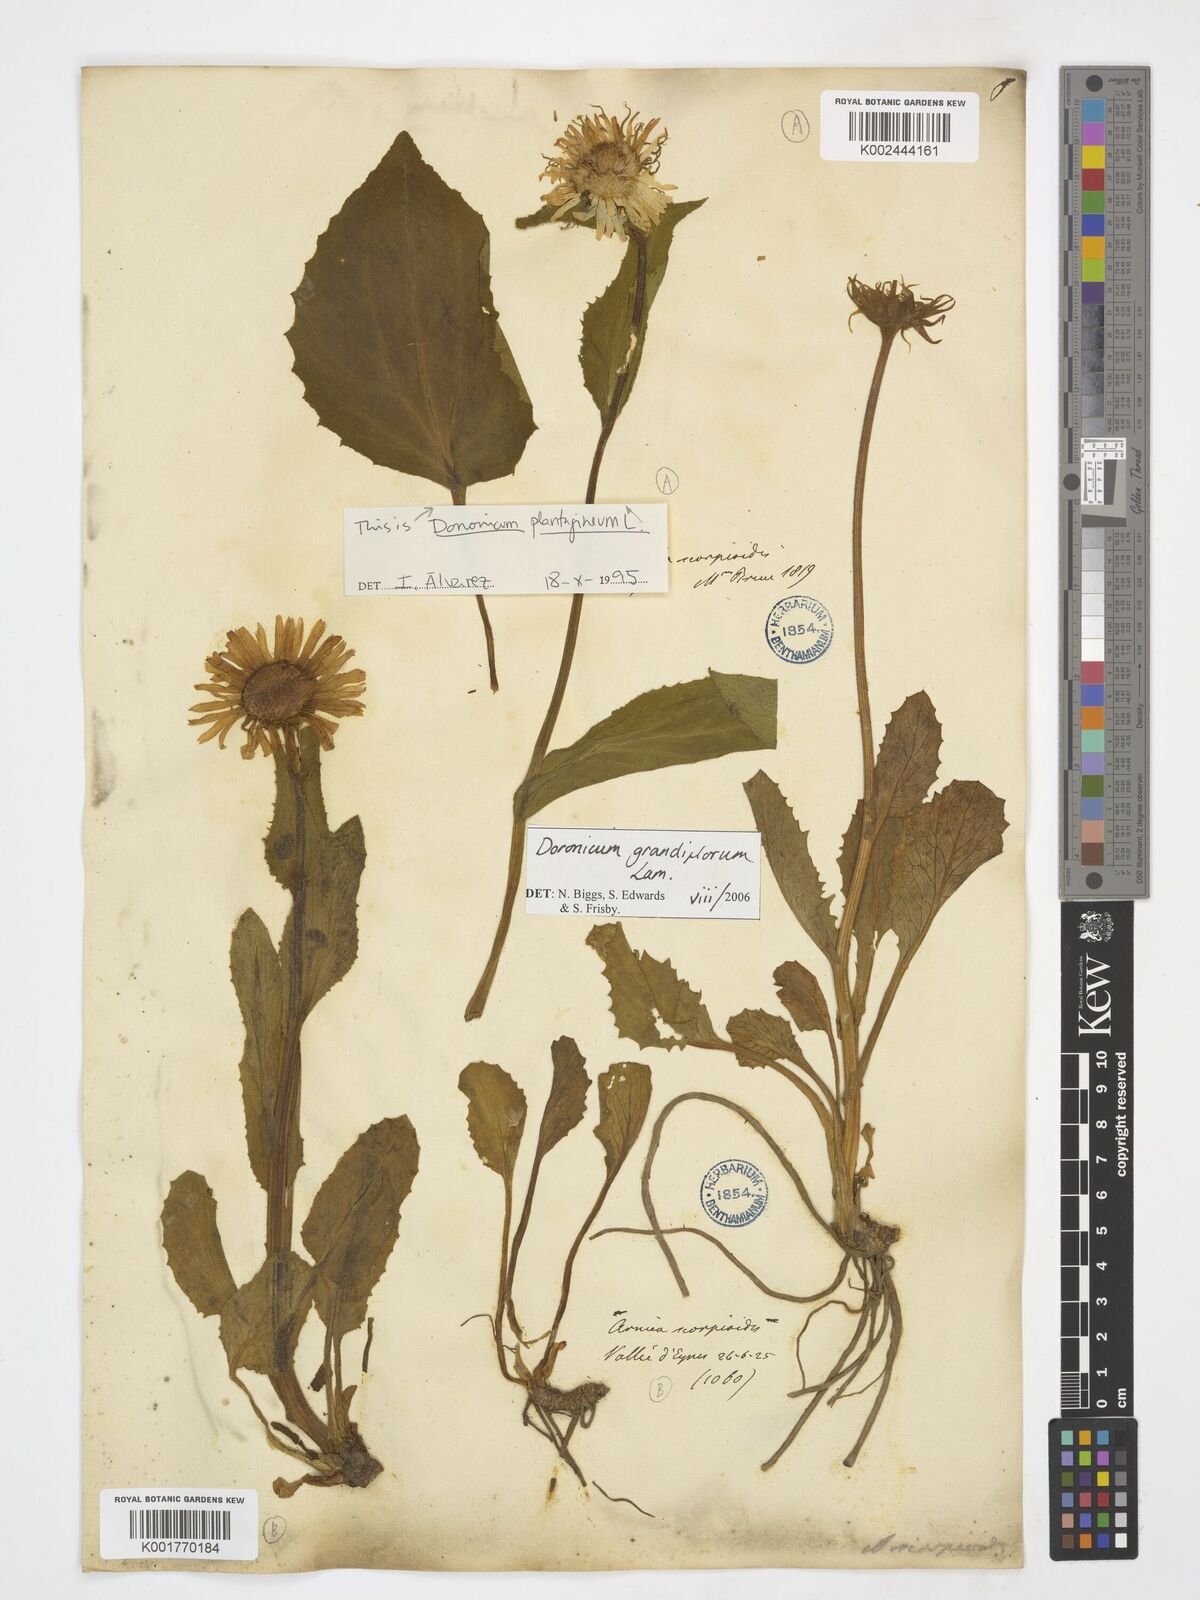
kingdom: Plantae
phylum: Tracheophyta
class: Magnoliopsida
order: Asterales
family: Asteraceae
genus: Doronicum
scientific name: Doronicum plantagineum
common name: Plantain-leaved leopard's-bane
